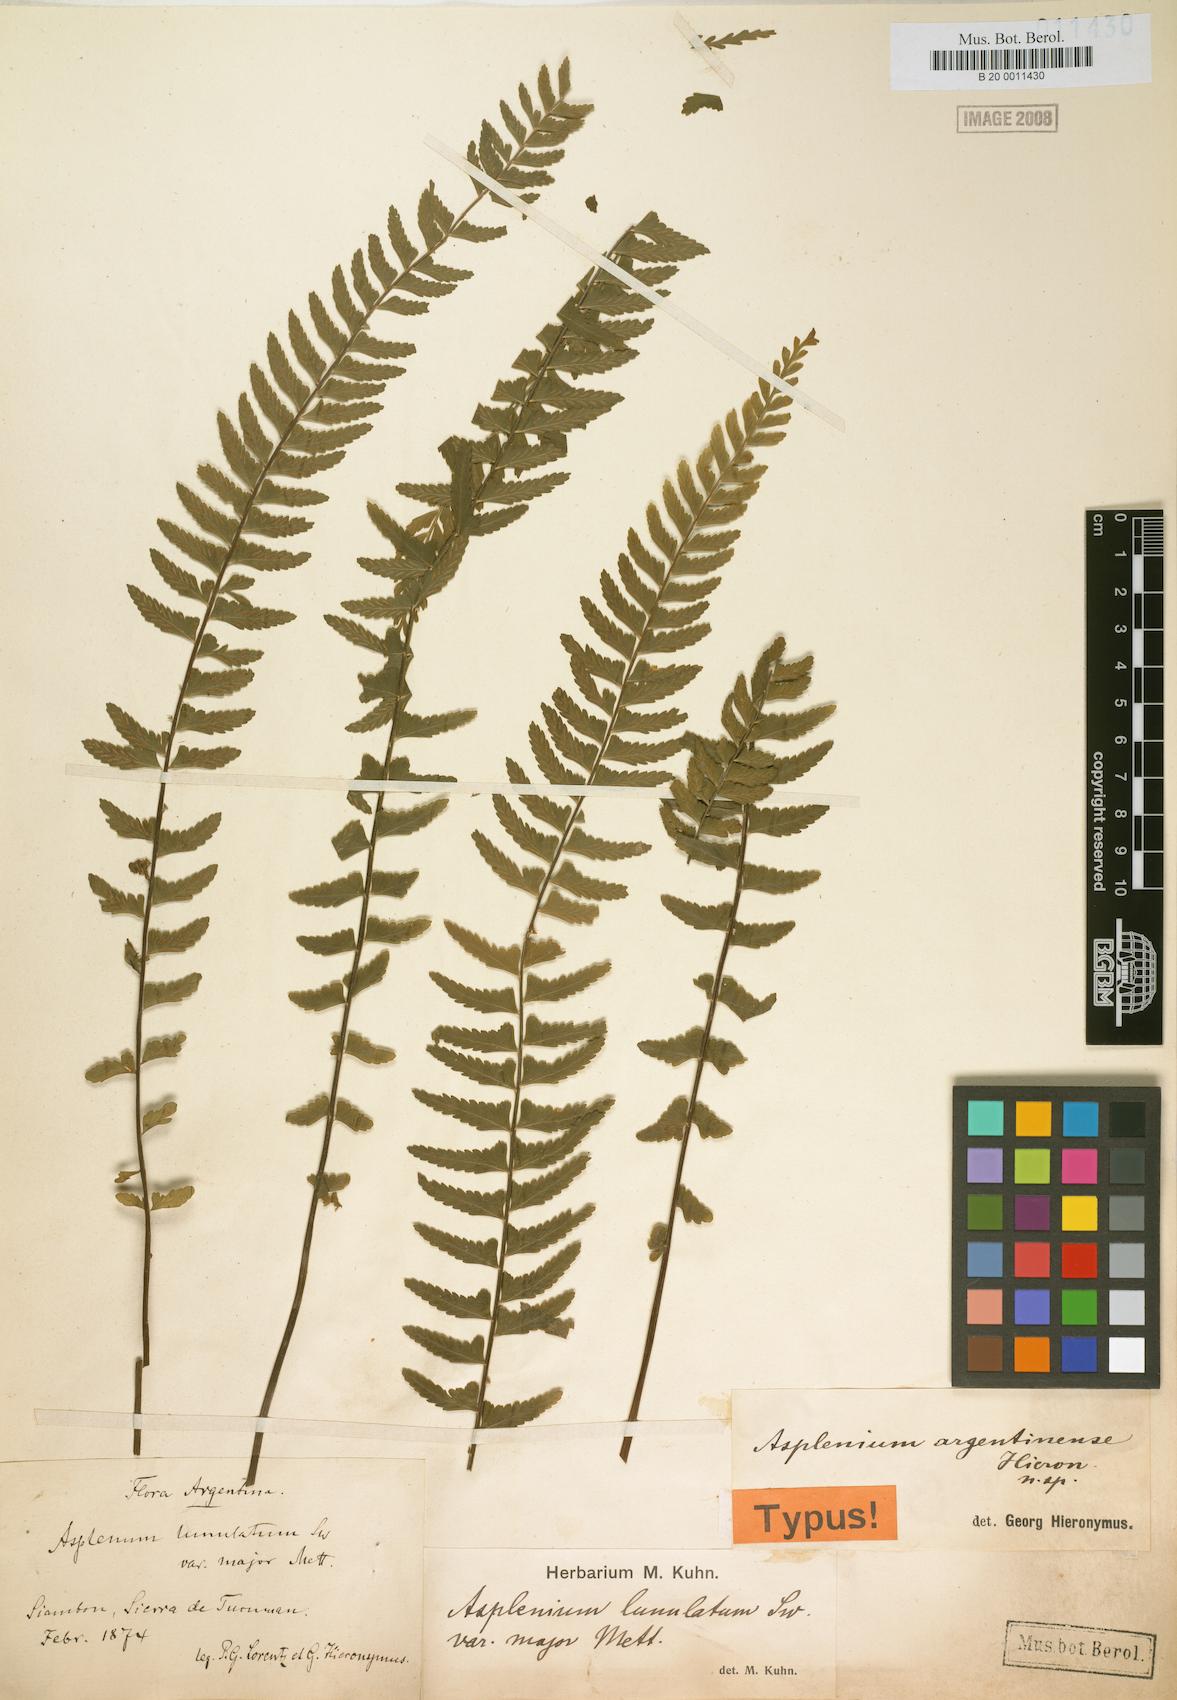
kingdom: Plantae
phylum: Tracheophyta
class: Polypodiopsida
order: Polypodiales
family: Aspleniaceae
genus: Asplenium
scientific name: Asplenium argentinum
